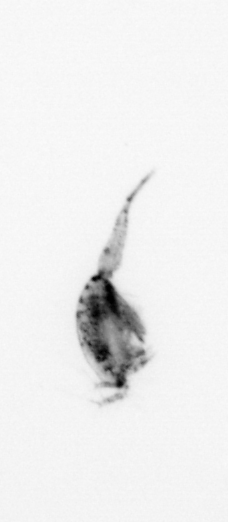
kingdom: Animalia
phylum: Arthropoda
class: Copepoda
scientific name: Copepoda
